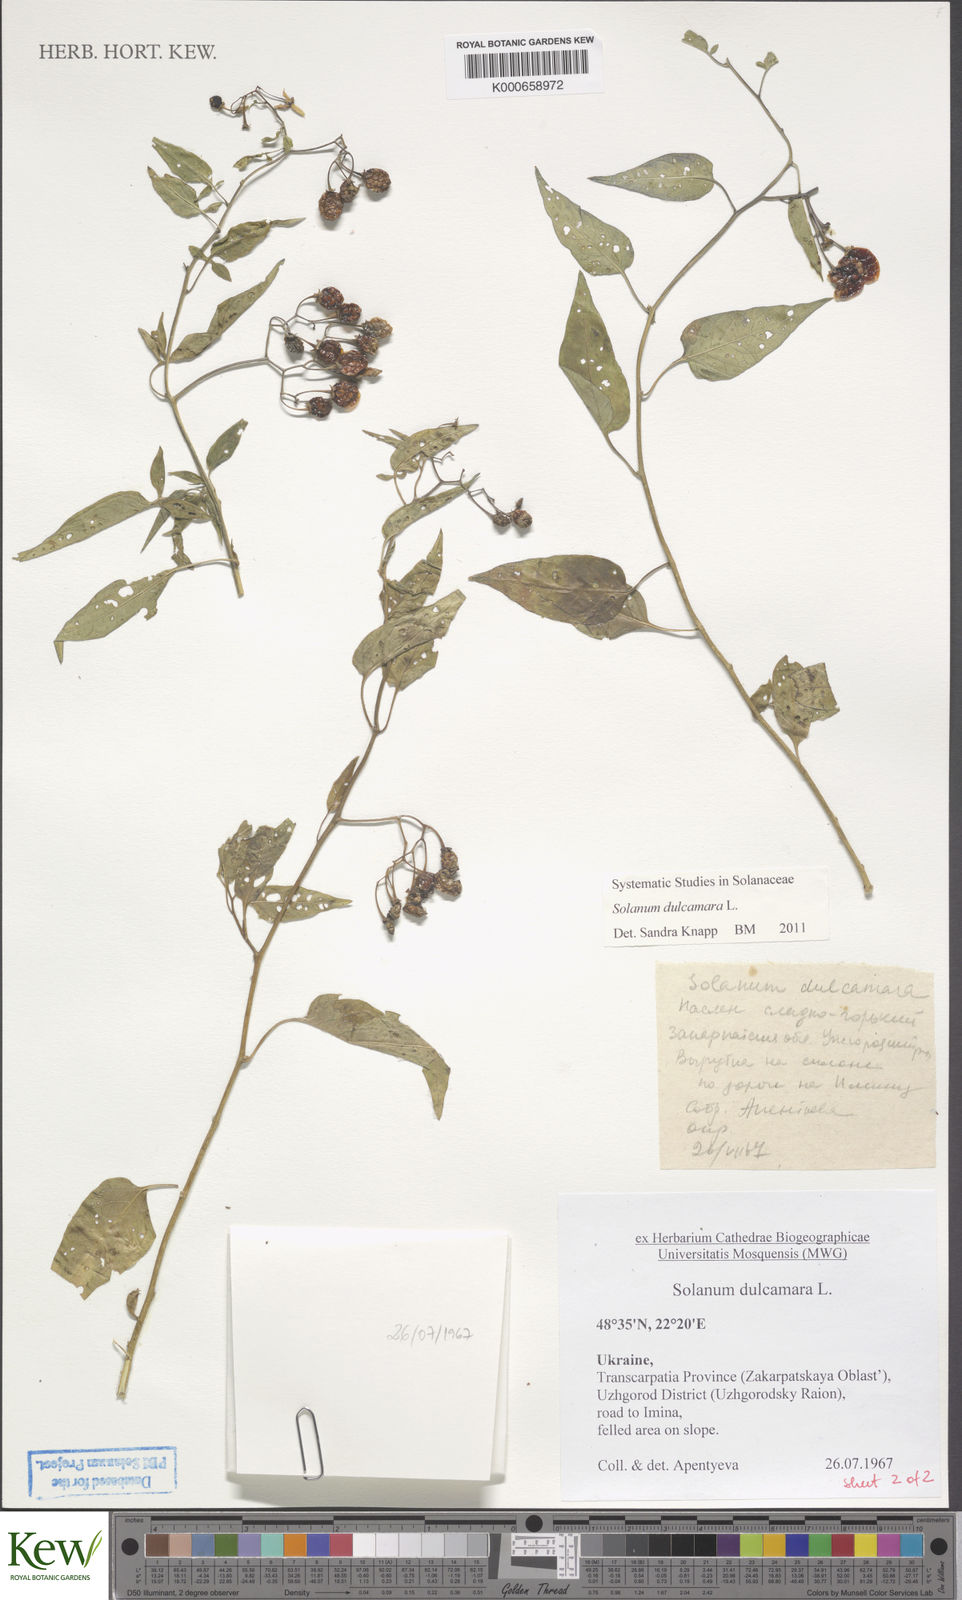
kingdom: Plantae
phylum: Tracheophyta
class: Magnoliopsida
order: Solanales
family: Solanaceae
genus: Solanum
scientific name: Solanum dulcamara
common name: Climbing nightshade
